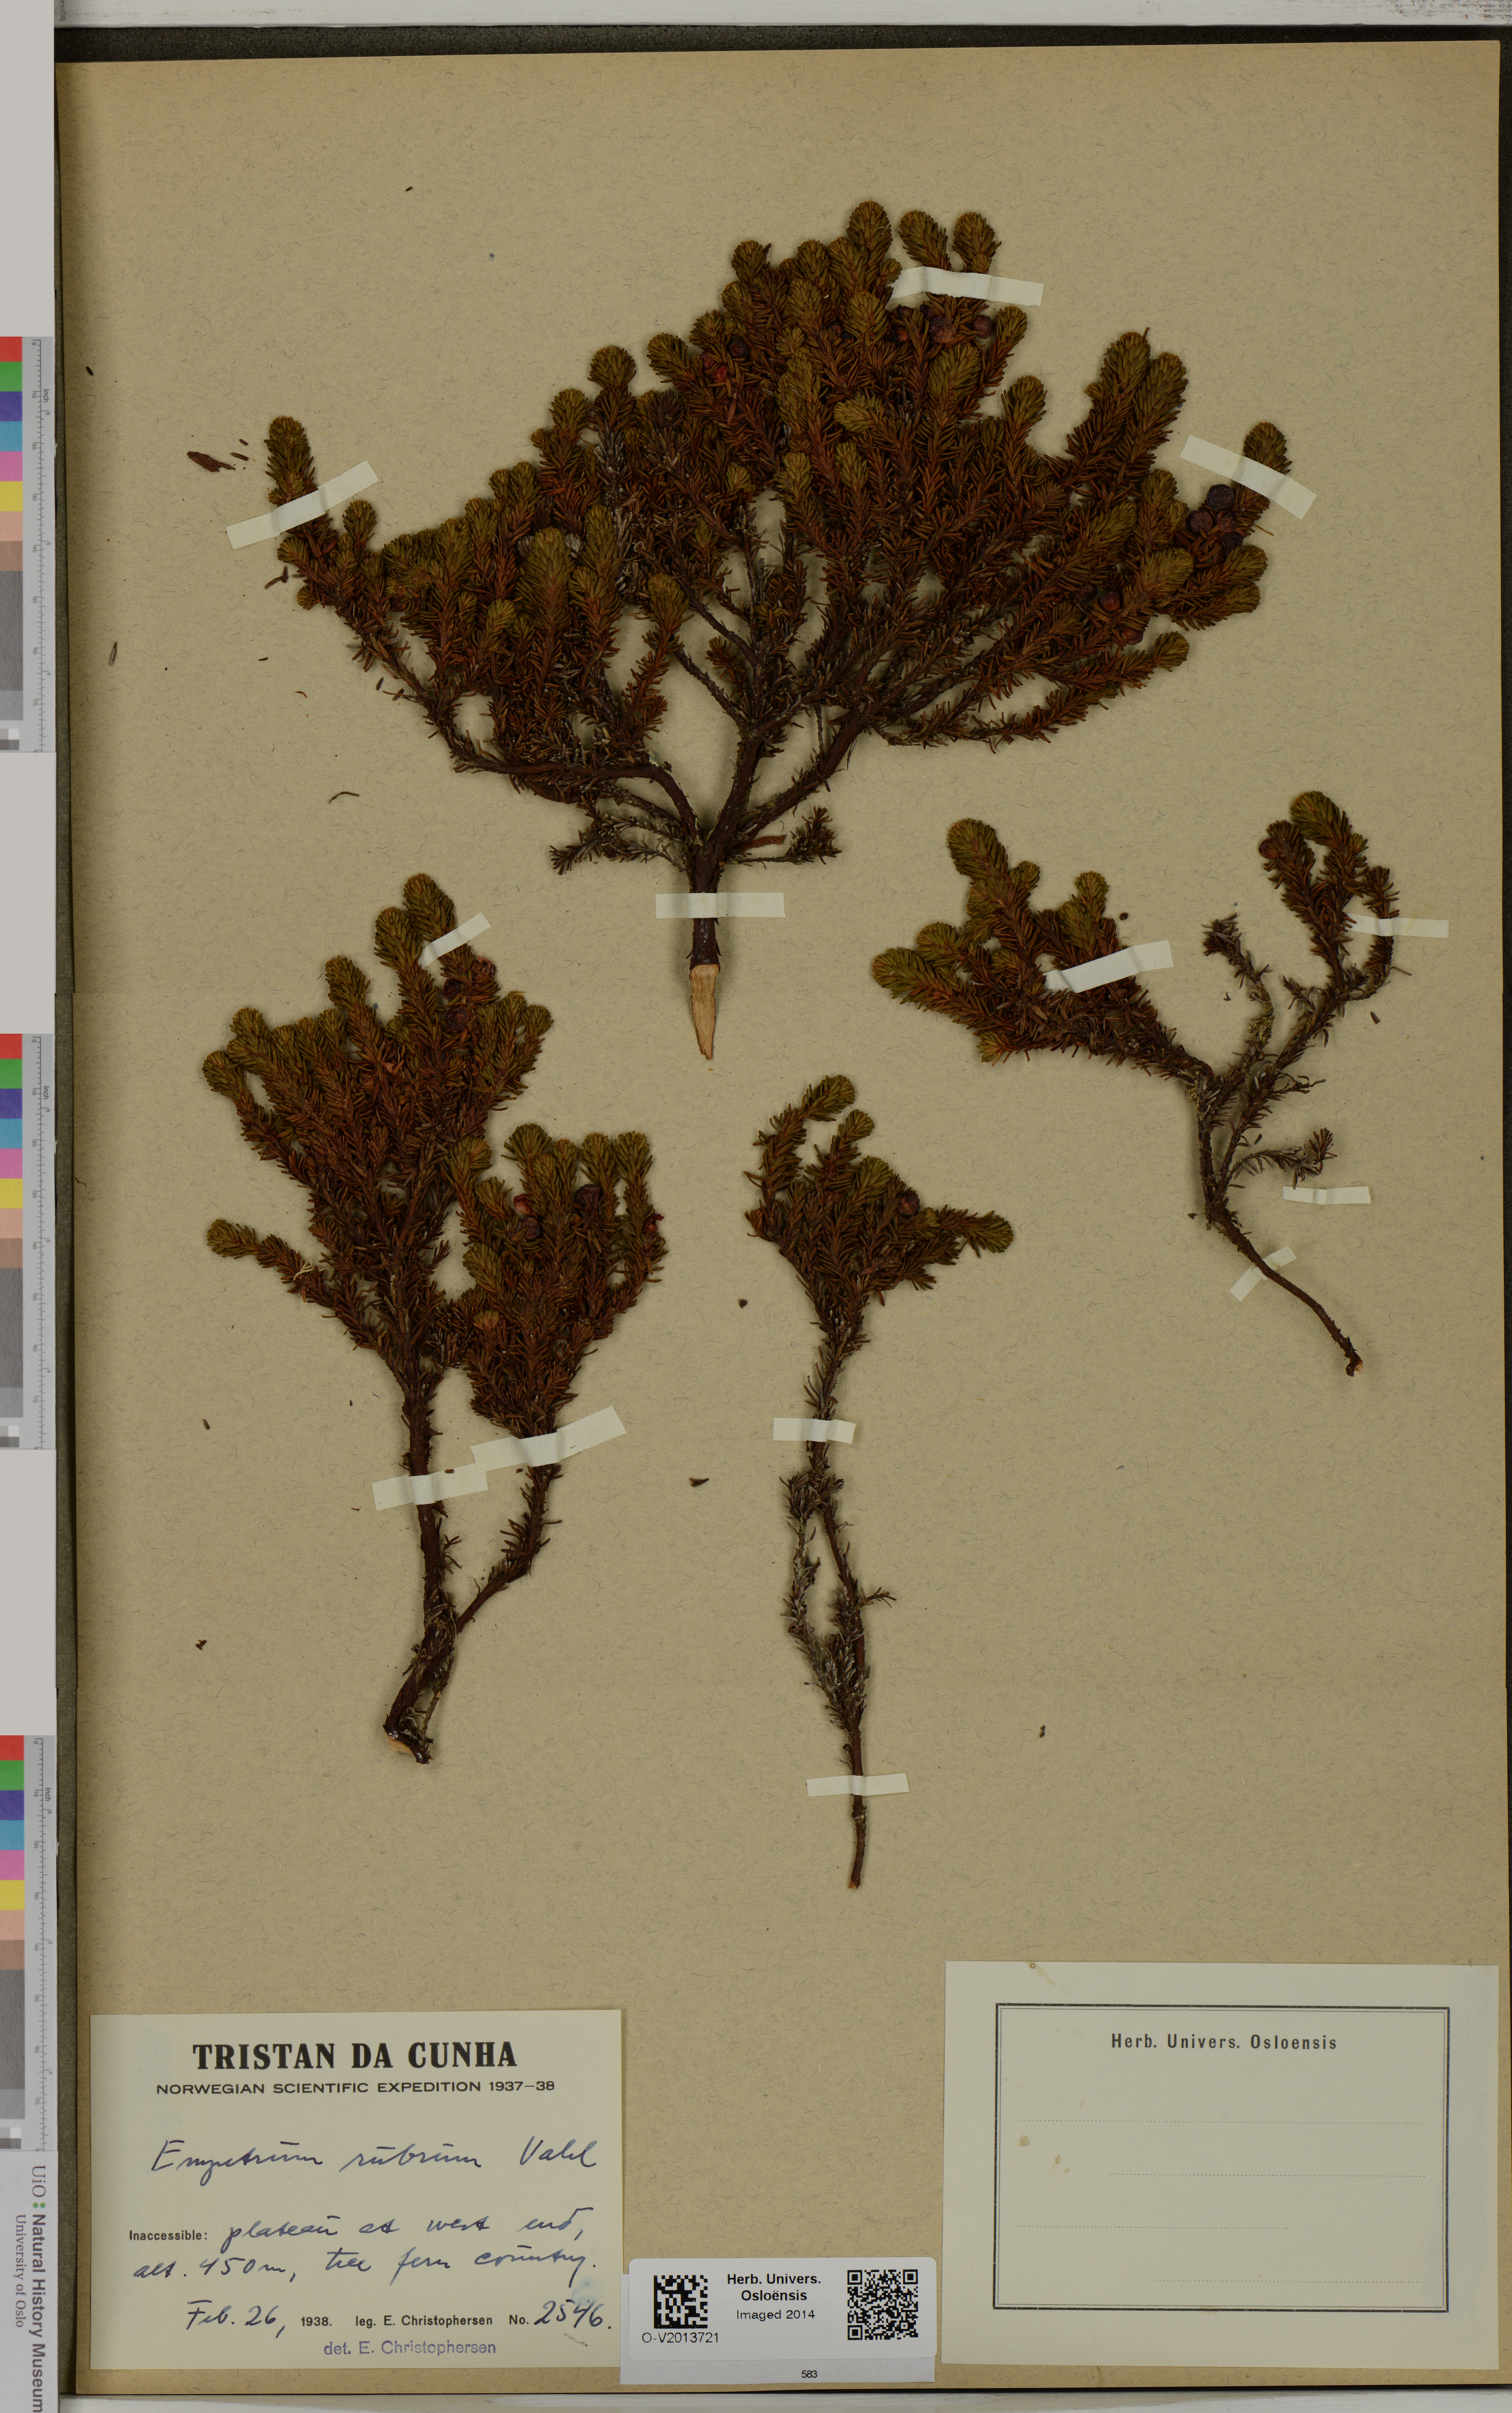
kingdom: Plantae
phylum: Tracheophyta
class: Magnoliopsida
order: Ericales
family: Ericaceae
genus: Empetrum
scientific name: Empetrum rubrum
